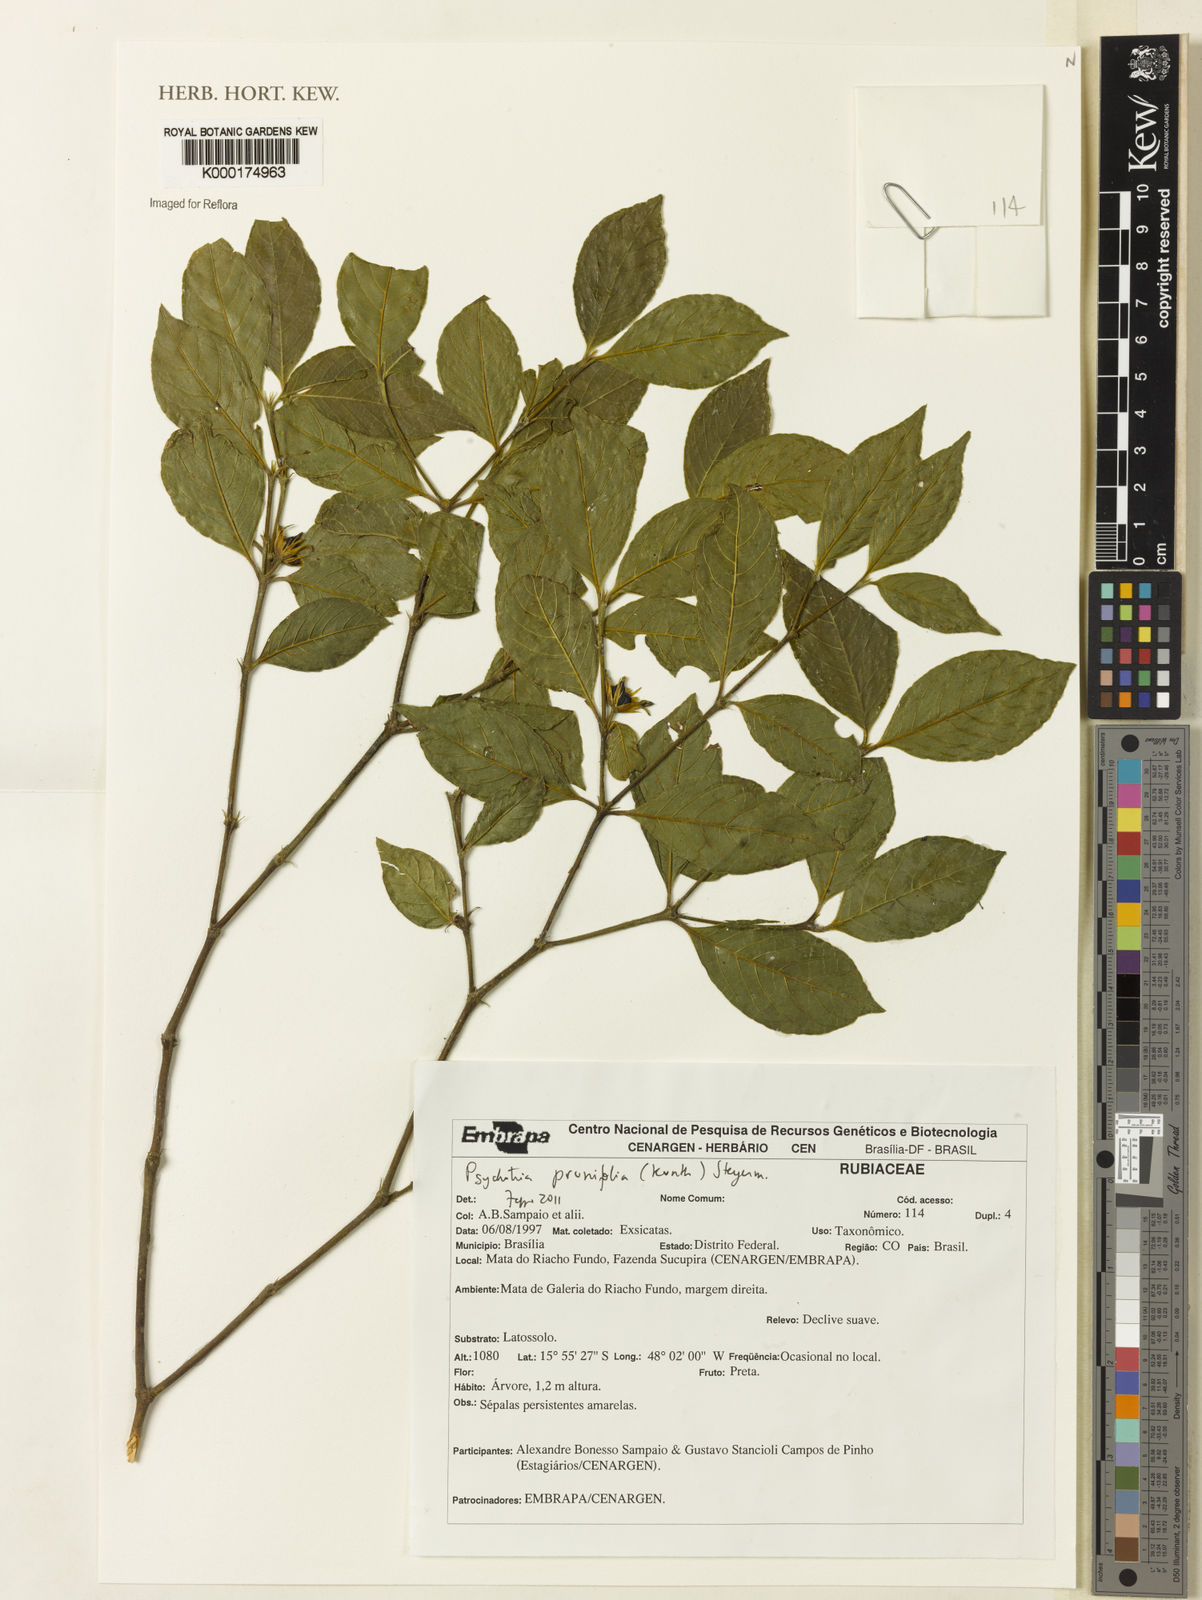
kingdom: Plantae
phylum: Tracheophyta
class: Magnoliopsida
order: Gentianales
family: Rubiaceae
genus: Palicourea
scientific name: Palicourea prunifolia
